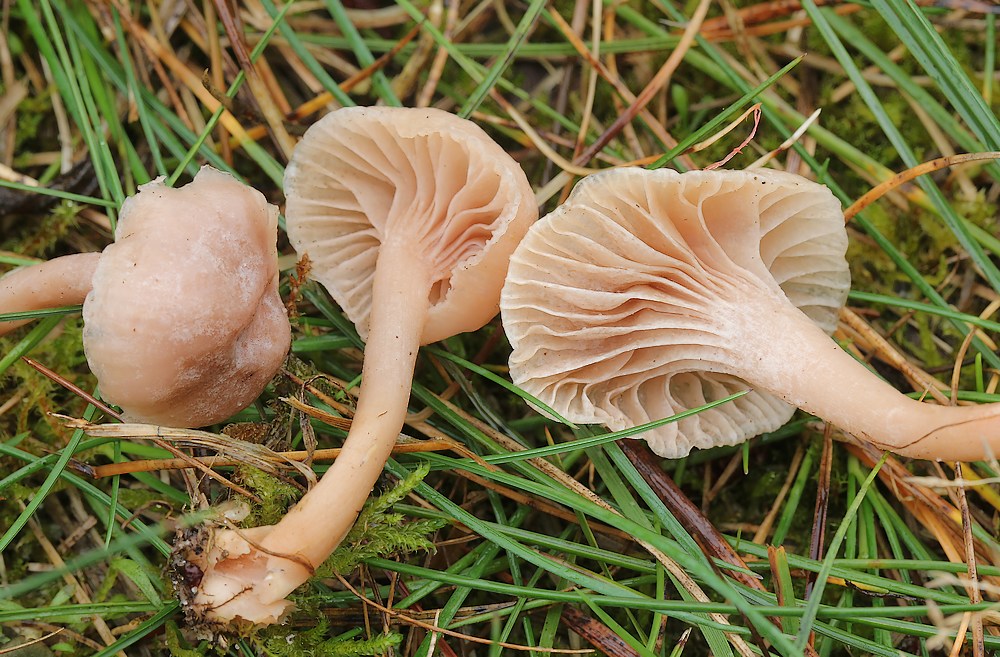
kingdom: Fungi
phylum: Basidiomycota
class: Agaricomycetes
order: Agaricales
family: Hygrophoraceae
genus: Cuphophyllus
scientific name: Cuphophyllus
